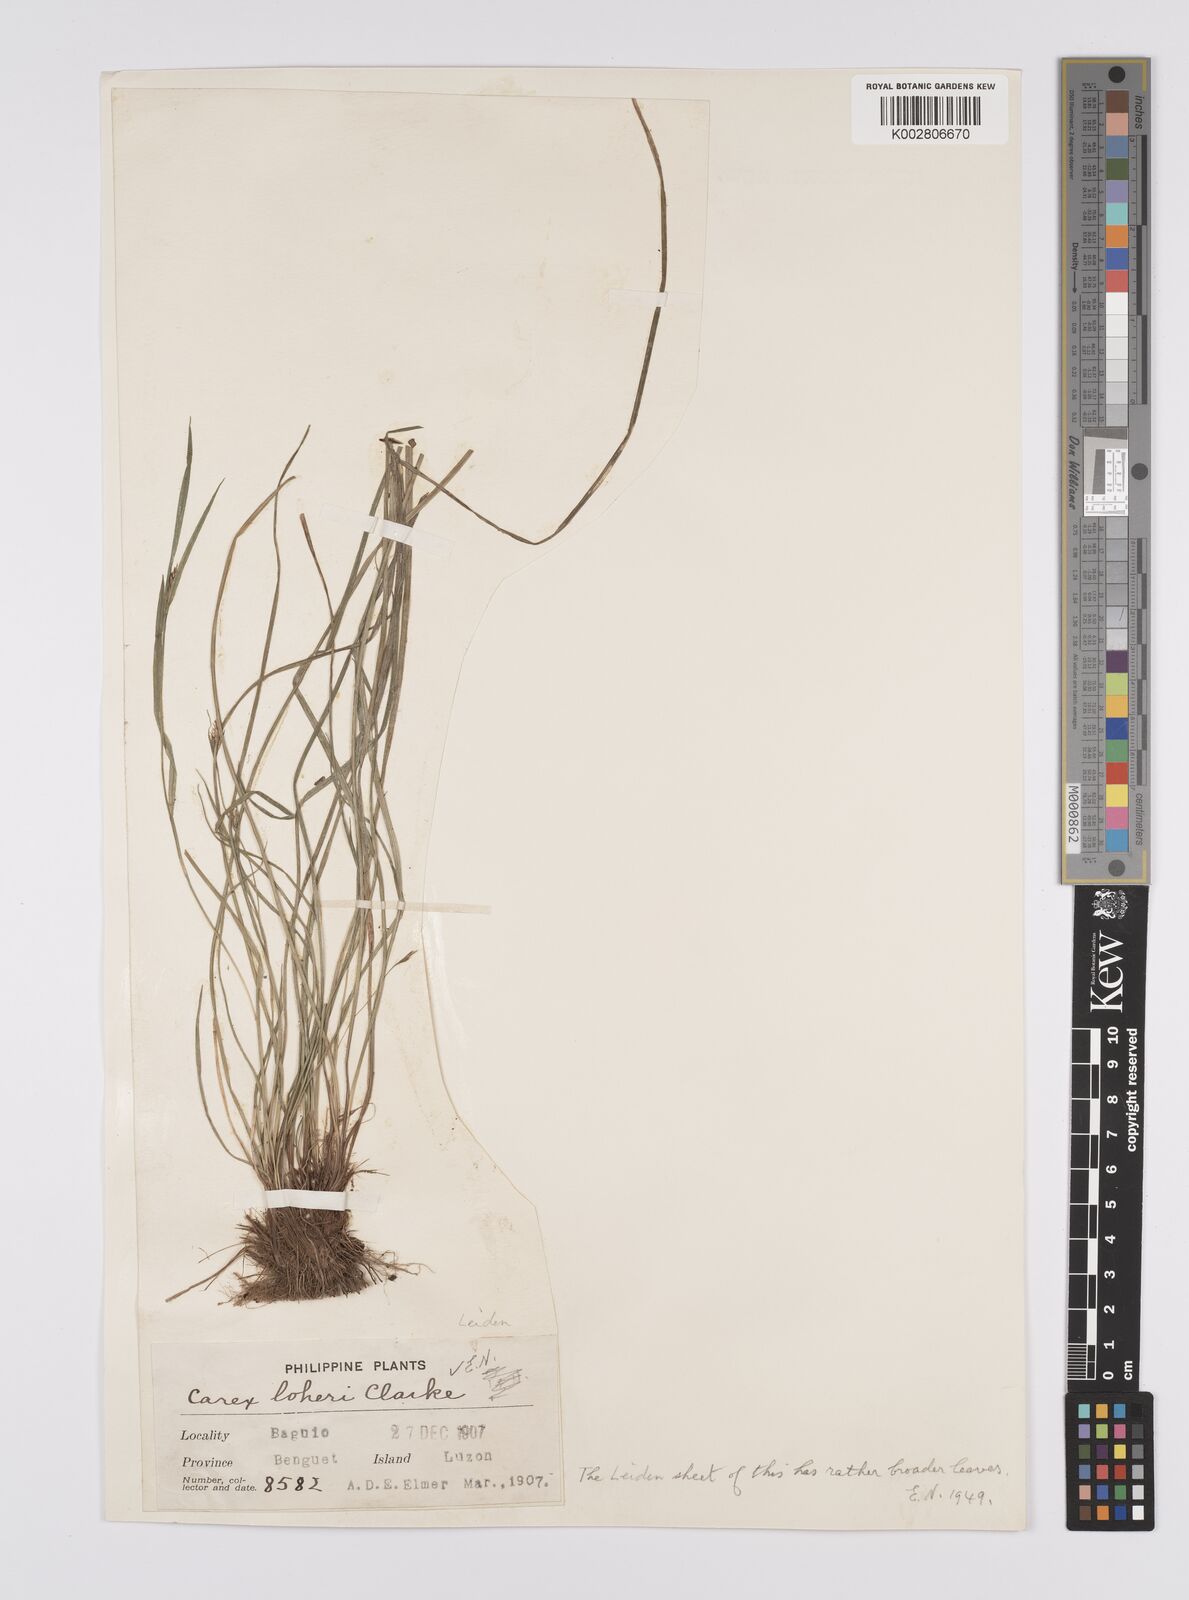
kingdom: Plantae
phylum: Tracheophyta
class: Liliopsida
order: Poales
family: Cyperaceae
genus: Carex
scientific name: Carex oxyphylla
